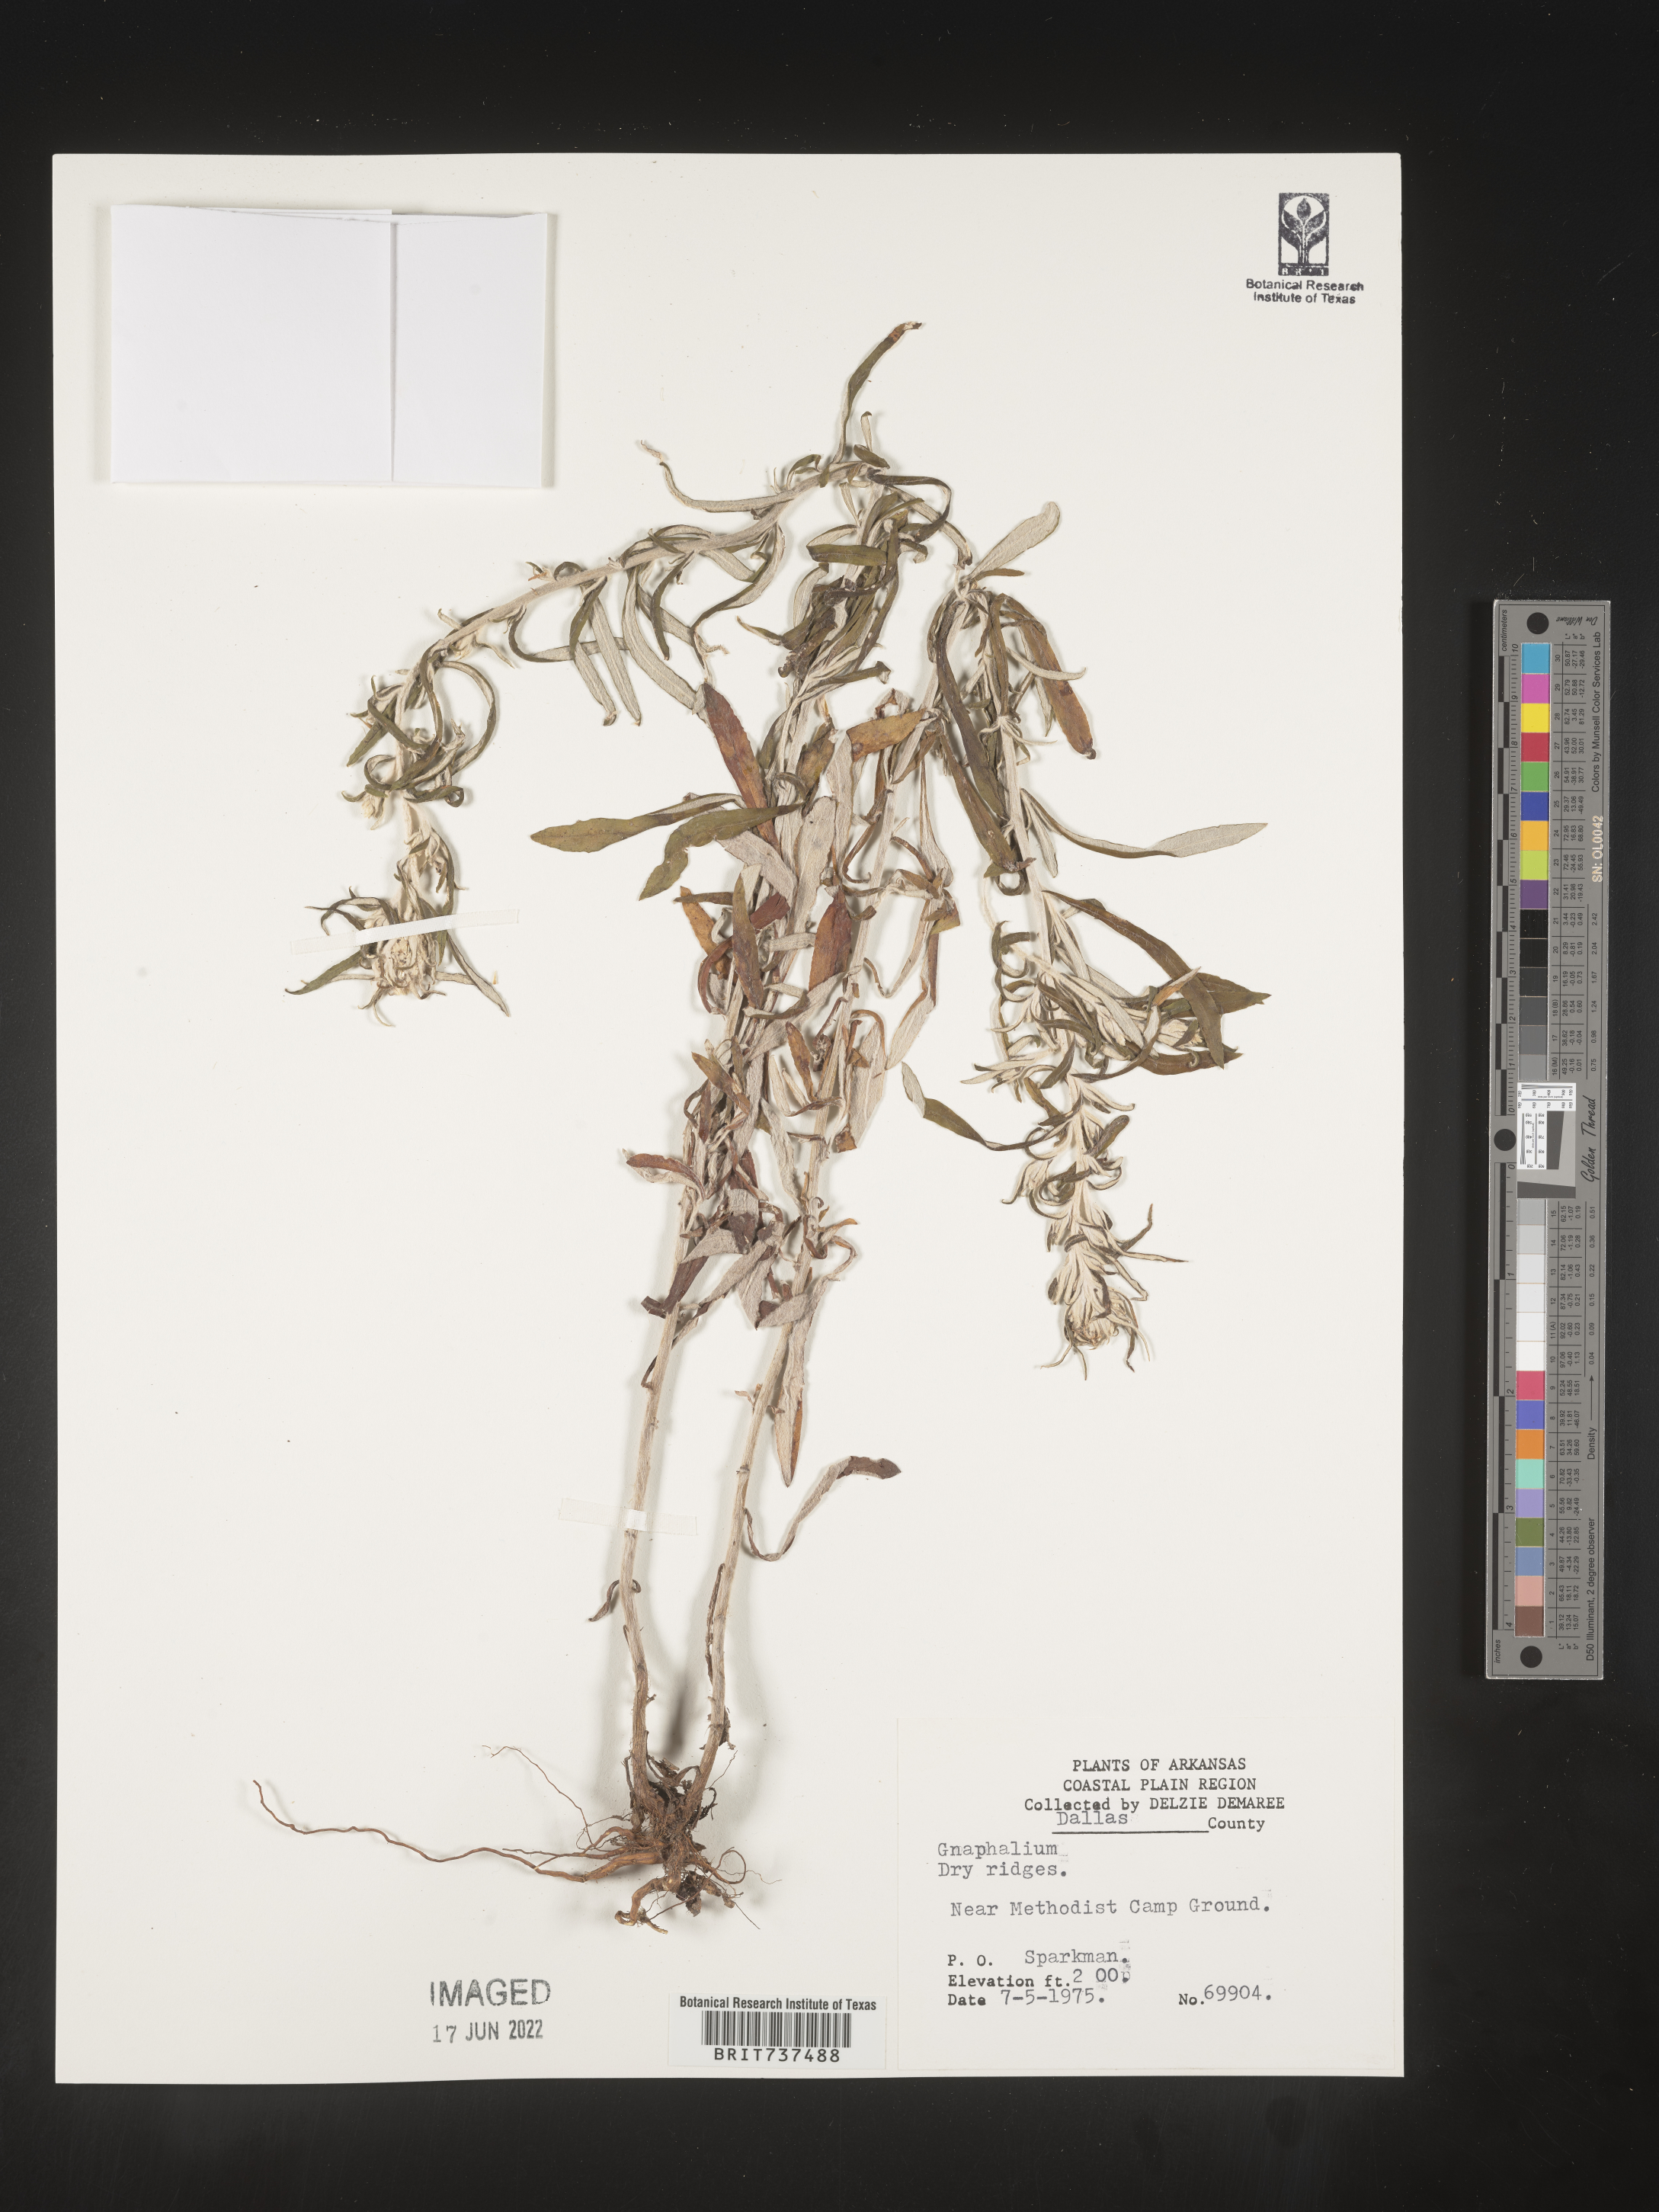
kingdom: Plantae
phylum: Tracheophyta
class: Magnoliopsida
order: Asterales
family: Asteraceae
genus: Pseudognaphalium
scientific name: Pseudognaphalium obtusifolium
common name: Eastern rabbit-tobacco
